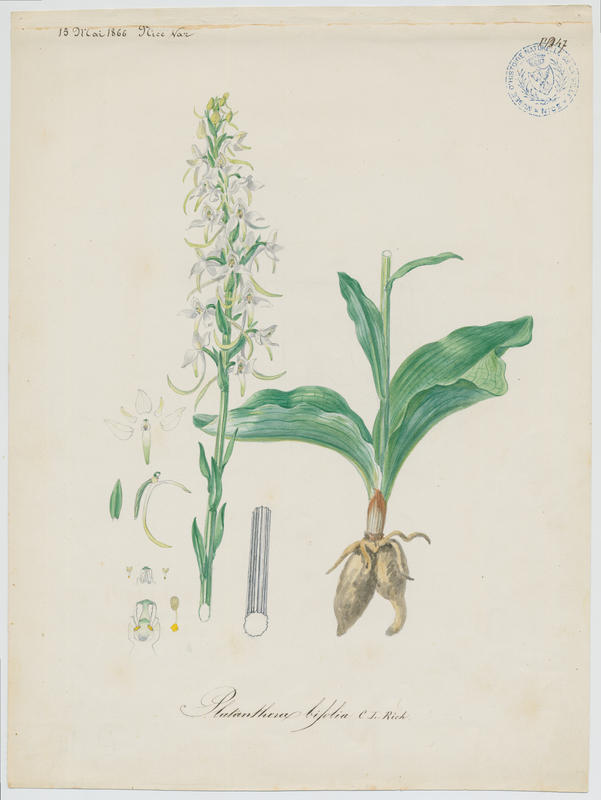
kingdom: Plantae
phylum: Tracheophyta
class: Liliopsida
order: Asparagales
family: Orchidaceae
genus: Platanthera
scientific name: Platanthera bifolia
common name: Lesser butterfly-orchid
